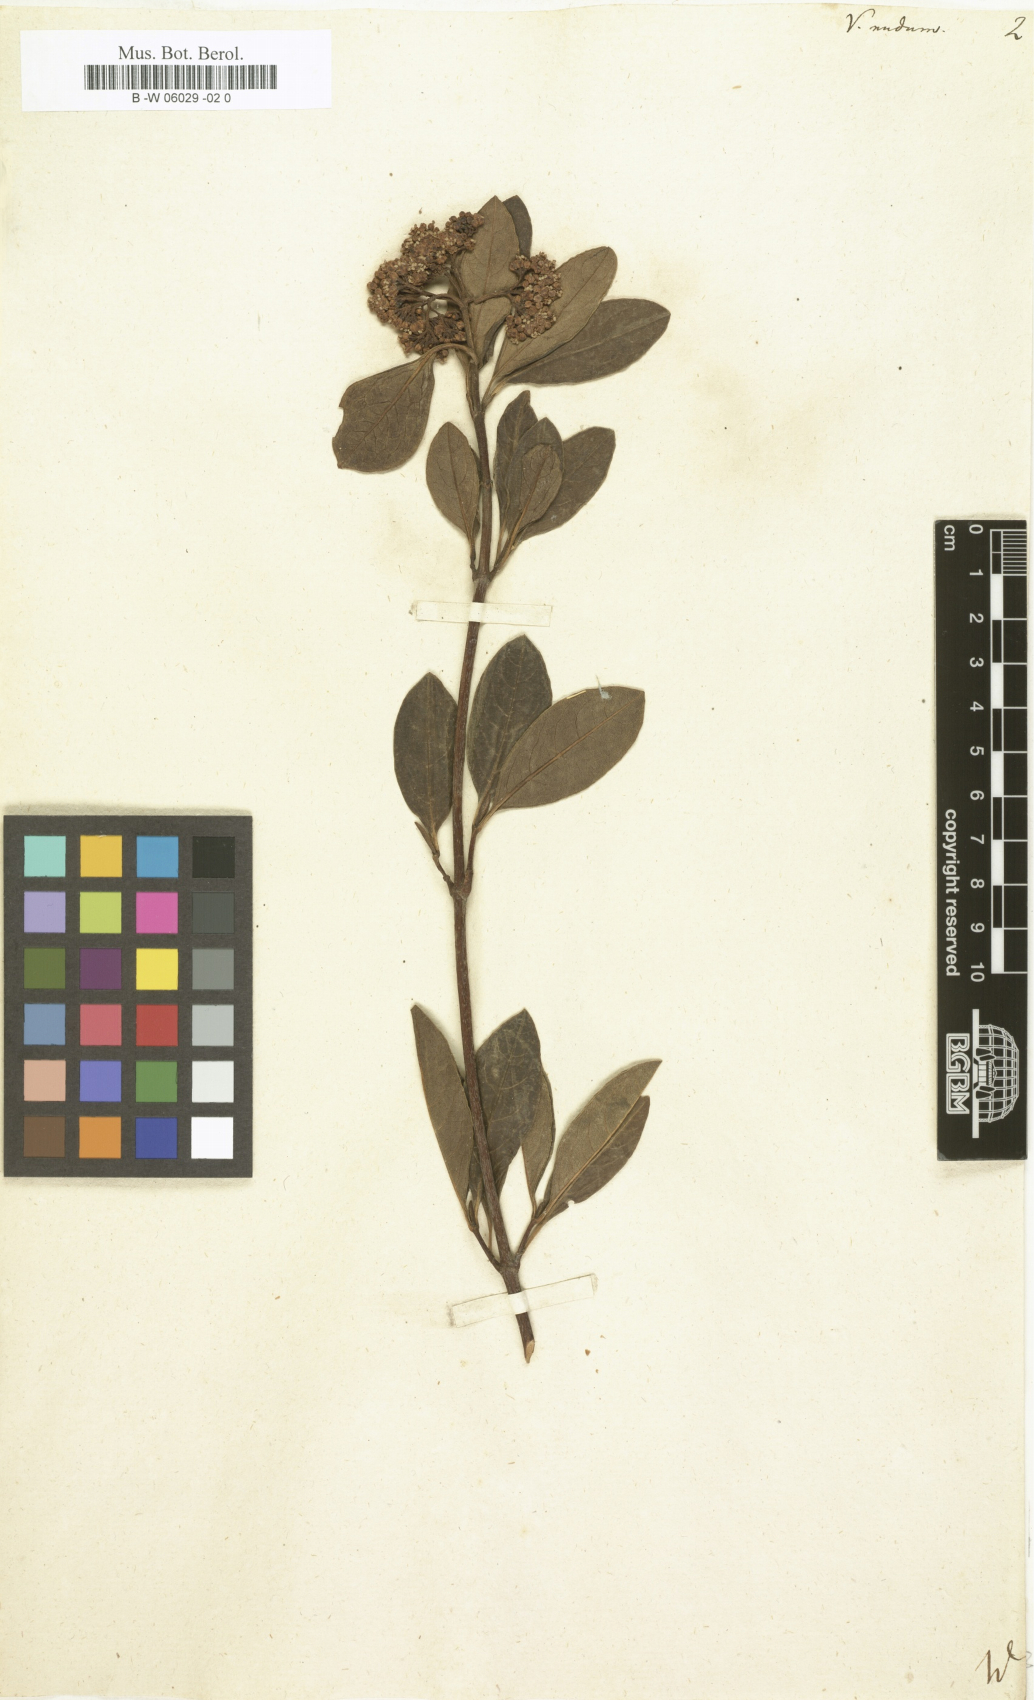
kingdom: Plantae
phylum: Tracheophyta
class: Magnoliopsida
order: Dipsacales
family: Viburnaceae
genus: Viburnum
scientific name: Viburnum nudum
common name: Possum haw
